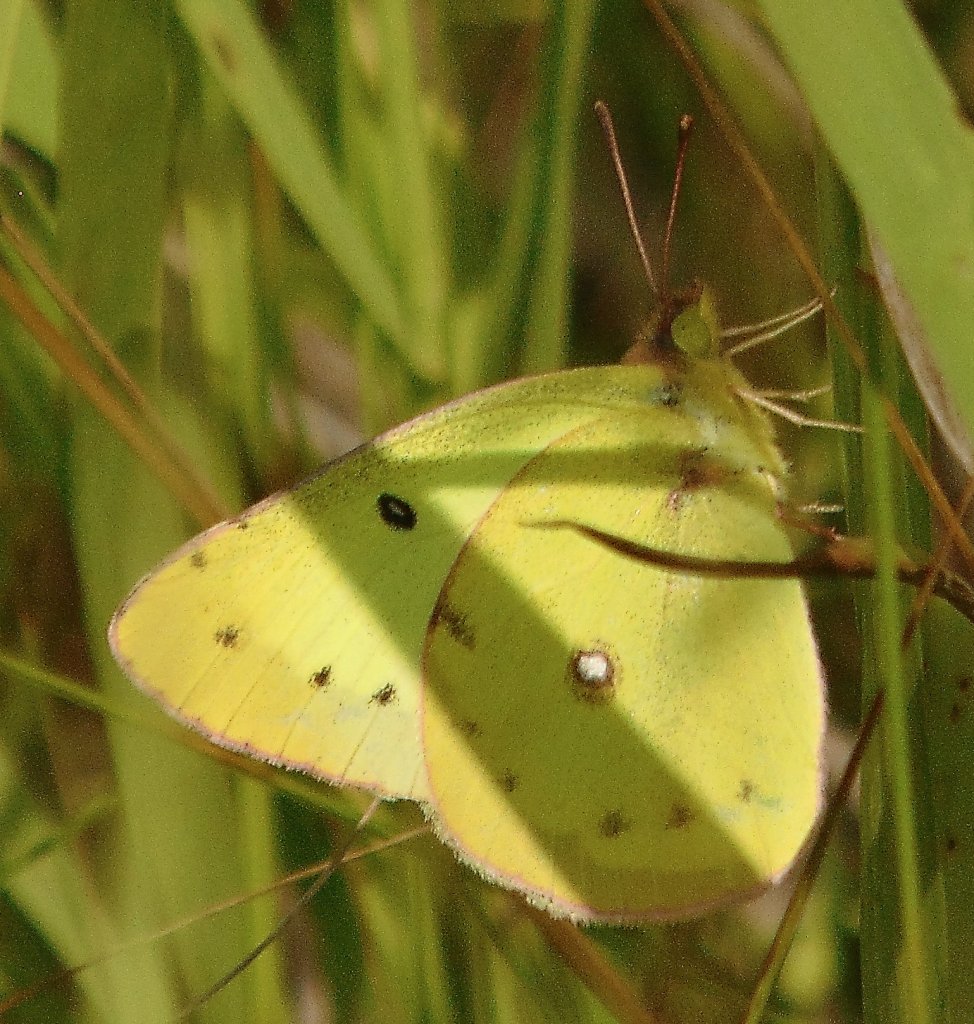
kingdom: Animalia
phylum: Arthropoda
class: Insecta
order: Lepidoptera
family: Pieridae
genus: Colias
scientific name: Colias philodice
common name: Clouded Sulphur
